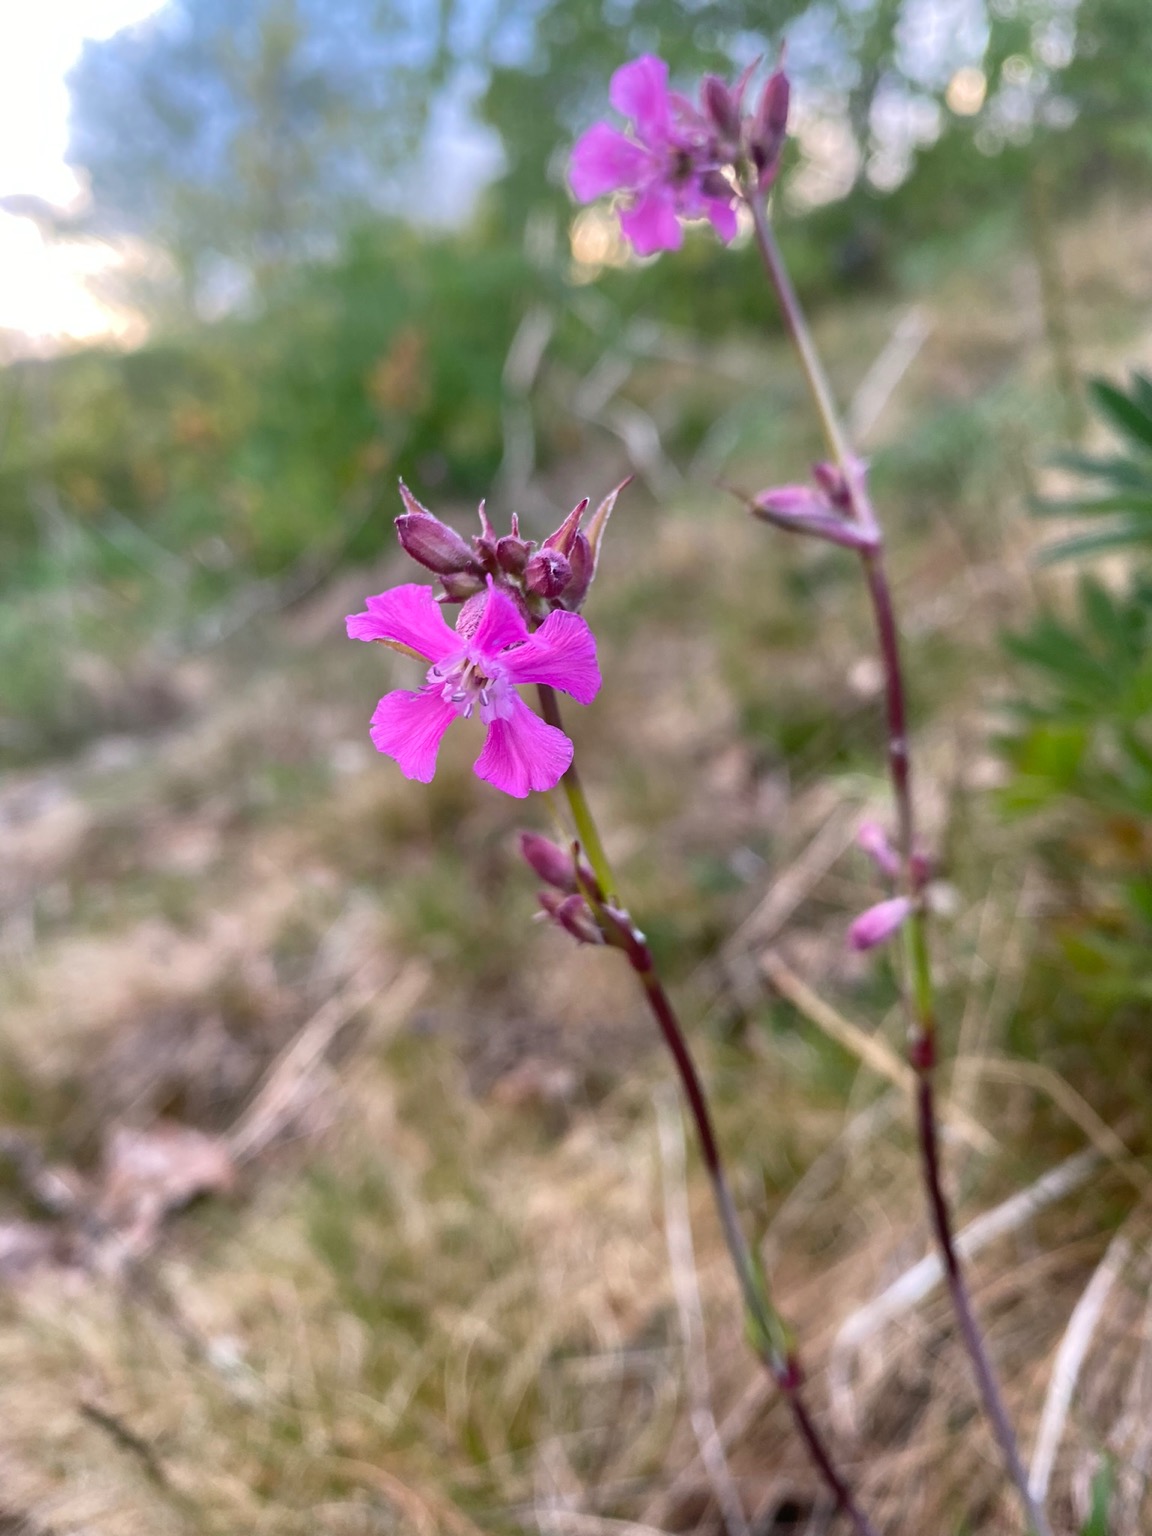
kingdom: Plantae
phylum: Tracheophyta
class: Magnoliopsida
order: Caryophyllales
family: Caryophyllaceae
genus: Viscaria
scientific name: Viscaria vulgaris
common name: Tjærenellike
